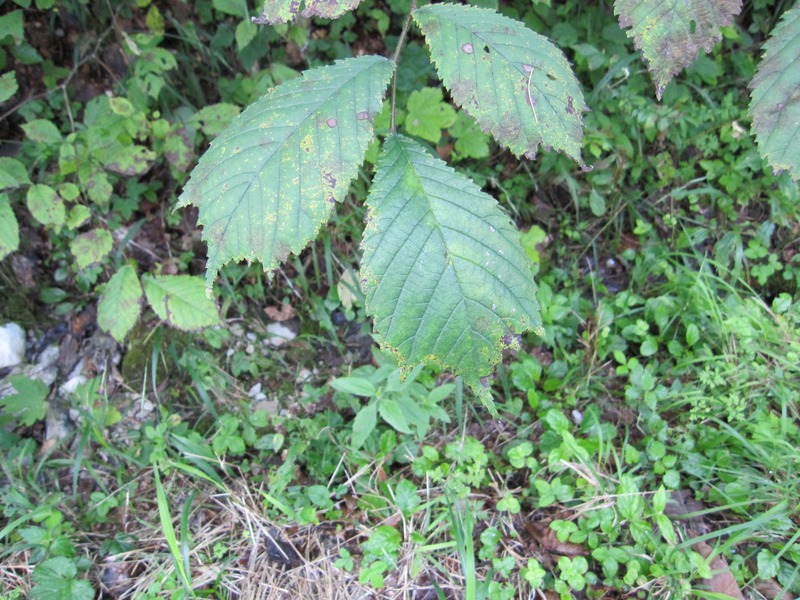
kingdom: Fungi
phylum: Ascomycota
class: Dothideomycetes
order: Mycosphaerellales
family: Mycosphaerellaceae
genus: Mycosphaerella
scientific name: Mycosphaerella ulmi
